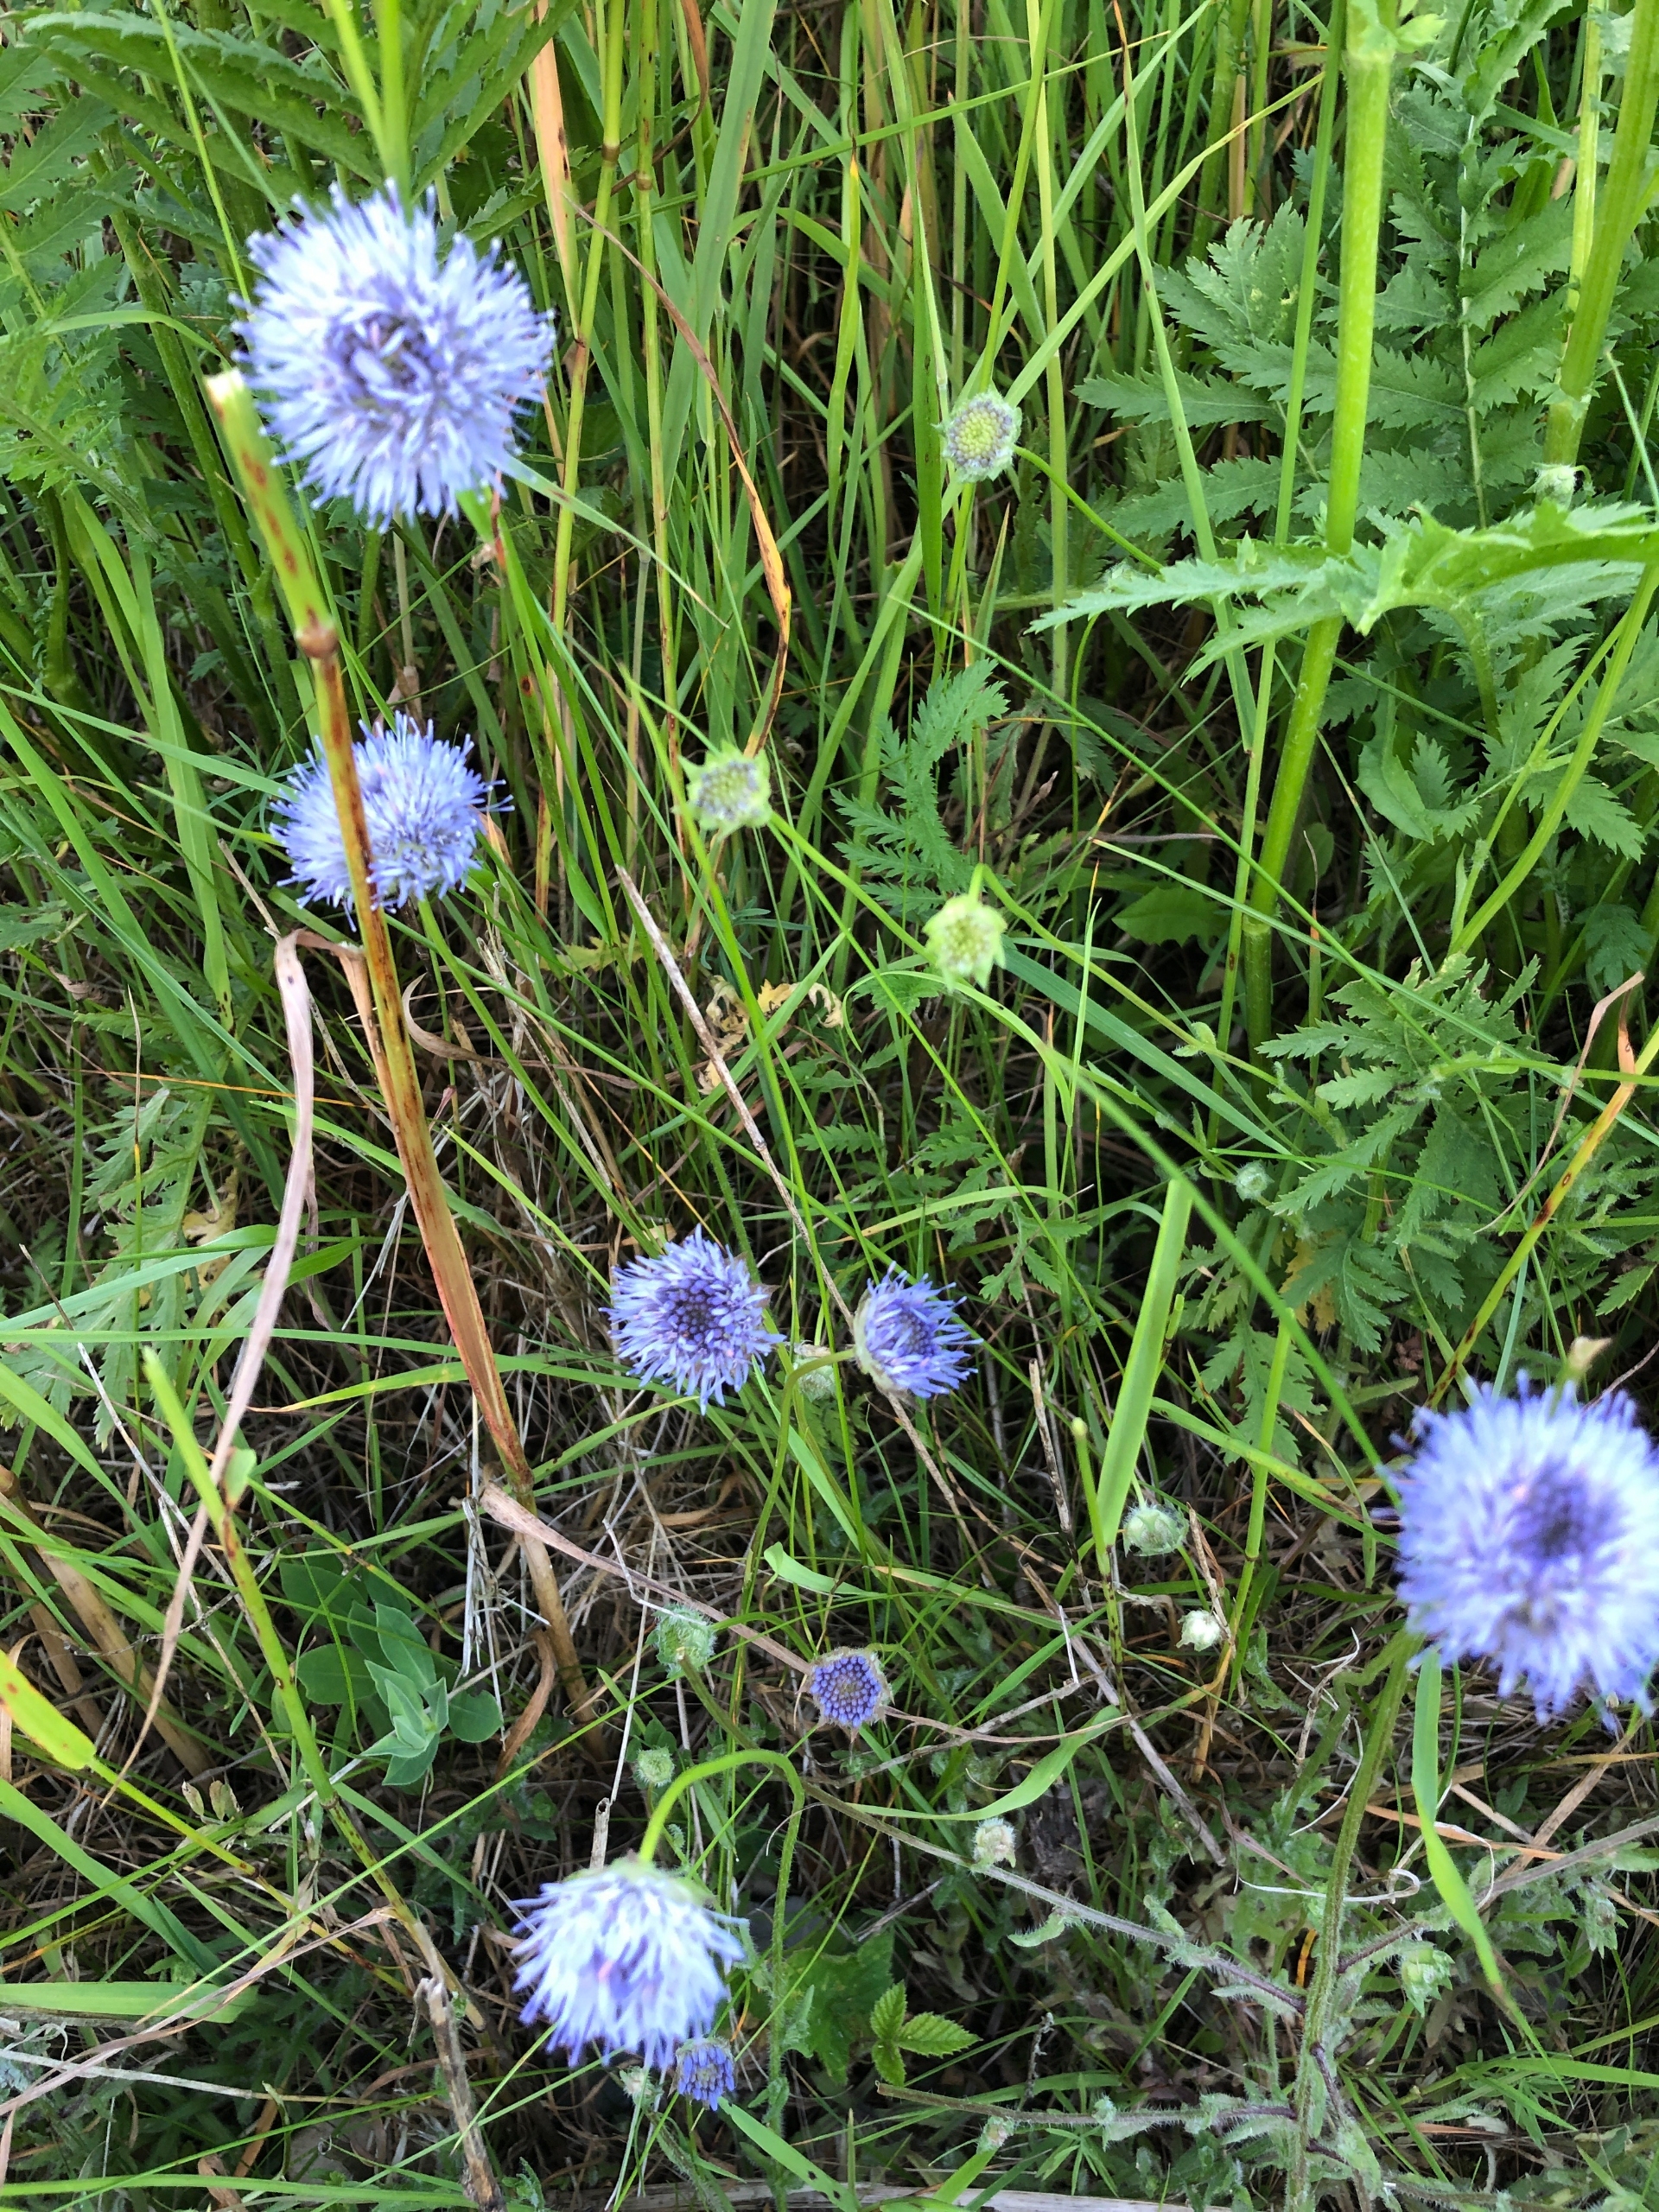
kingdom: Plantae
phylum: Tracheophyta
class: Magnoliopsida
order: Asterales
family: Campanulaceae
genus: Jasione
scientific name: Jasione montana
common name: Blåmunke
